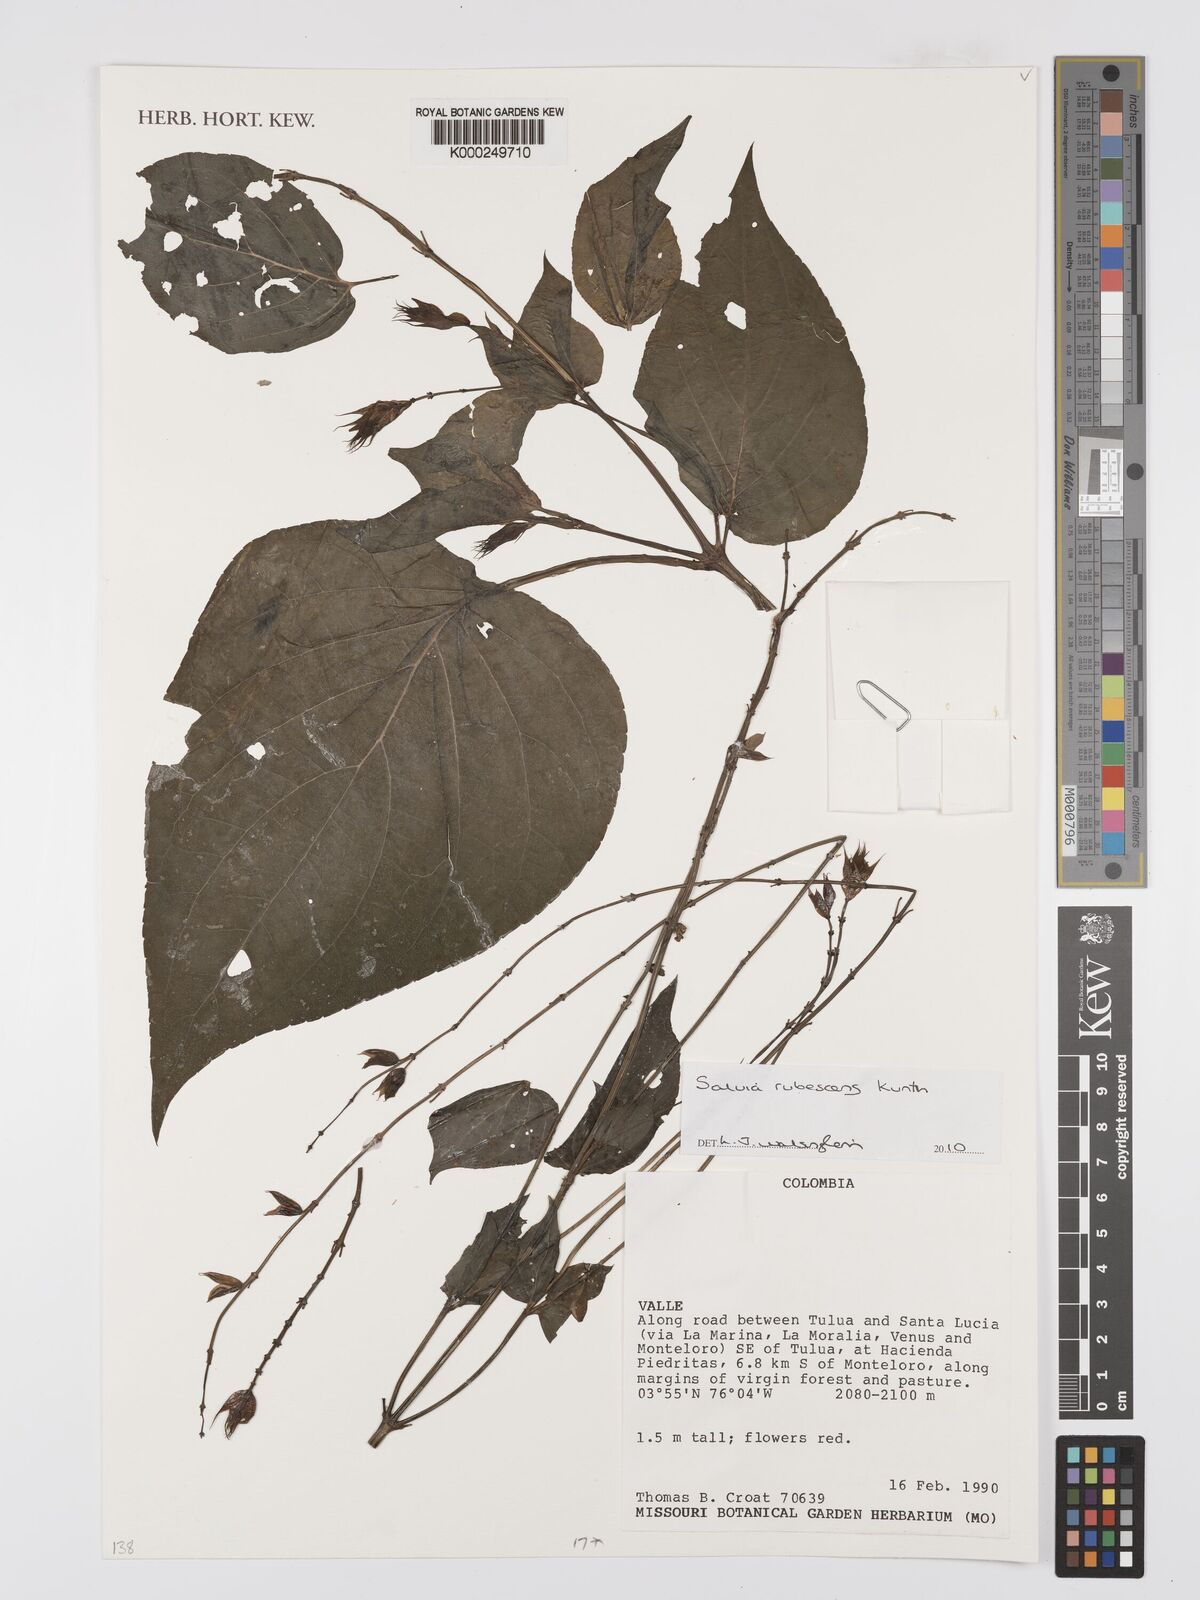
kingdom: Plantae
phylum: Tracheophyta
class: Magnoliopsida
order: Lamiales
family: Lamiaceae
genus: Salvia
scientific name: Salvia rubescens
